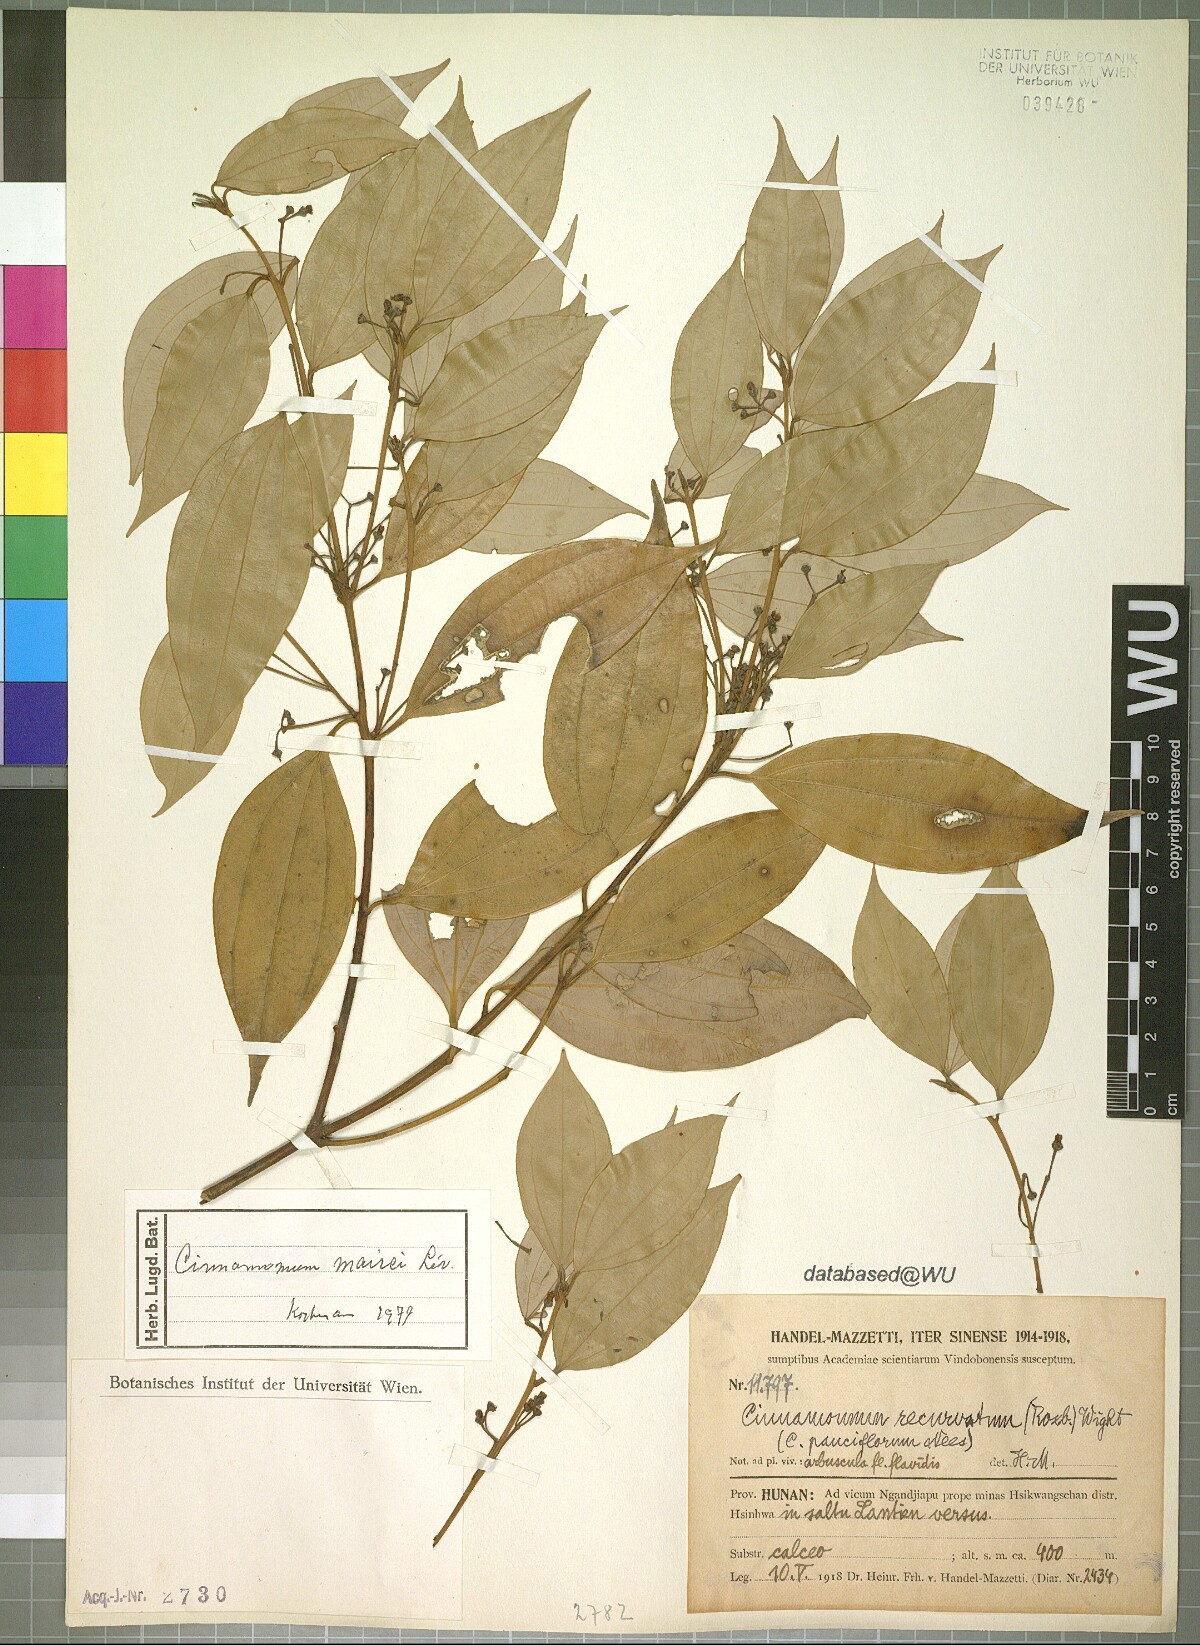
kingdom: Plantae
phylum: Tracheophyta
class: Magnoliopsida
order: Laurales
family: Lauraceae
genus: Cinnamomum
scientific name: Cinnamomum mairei
